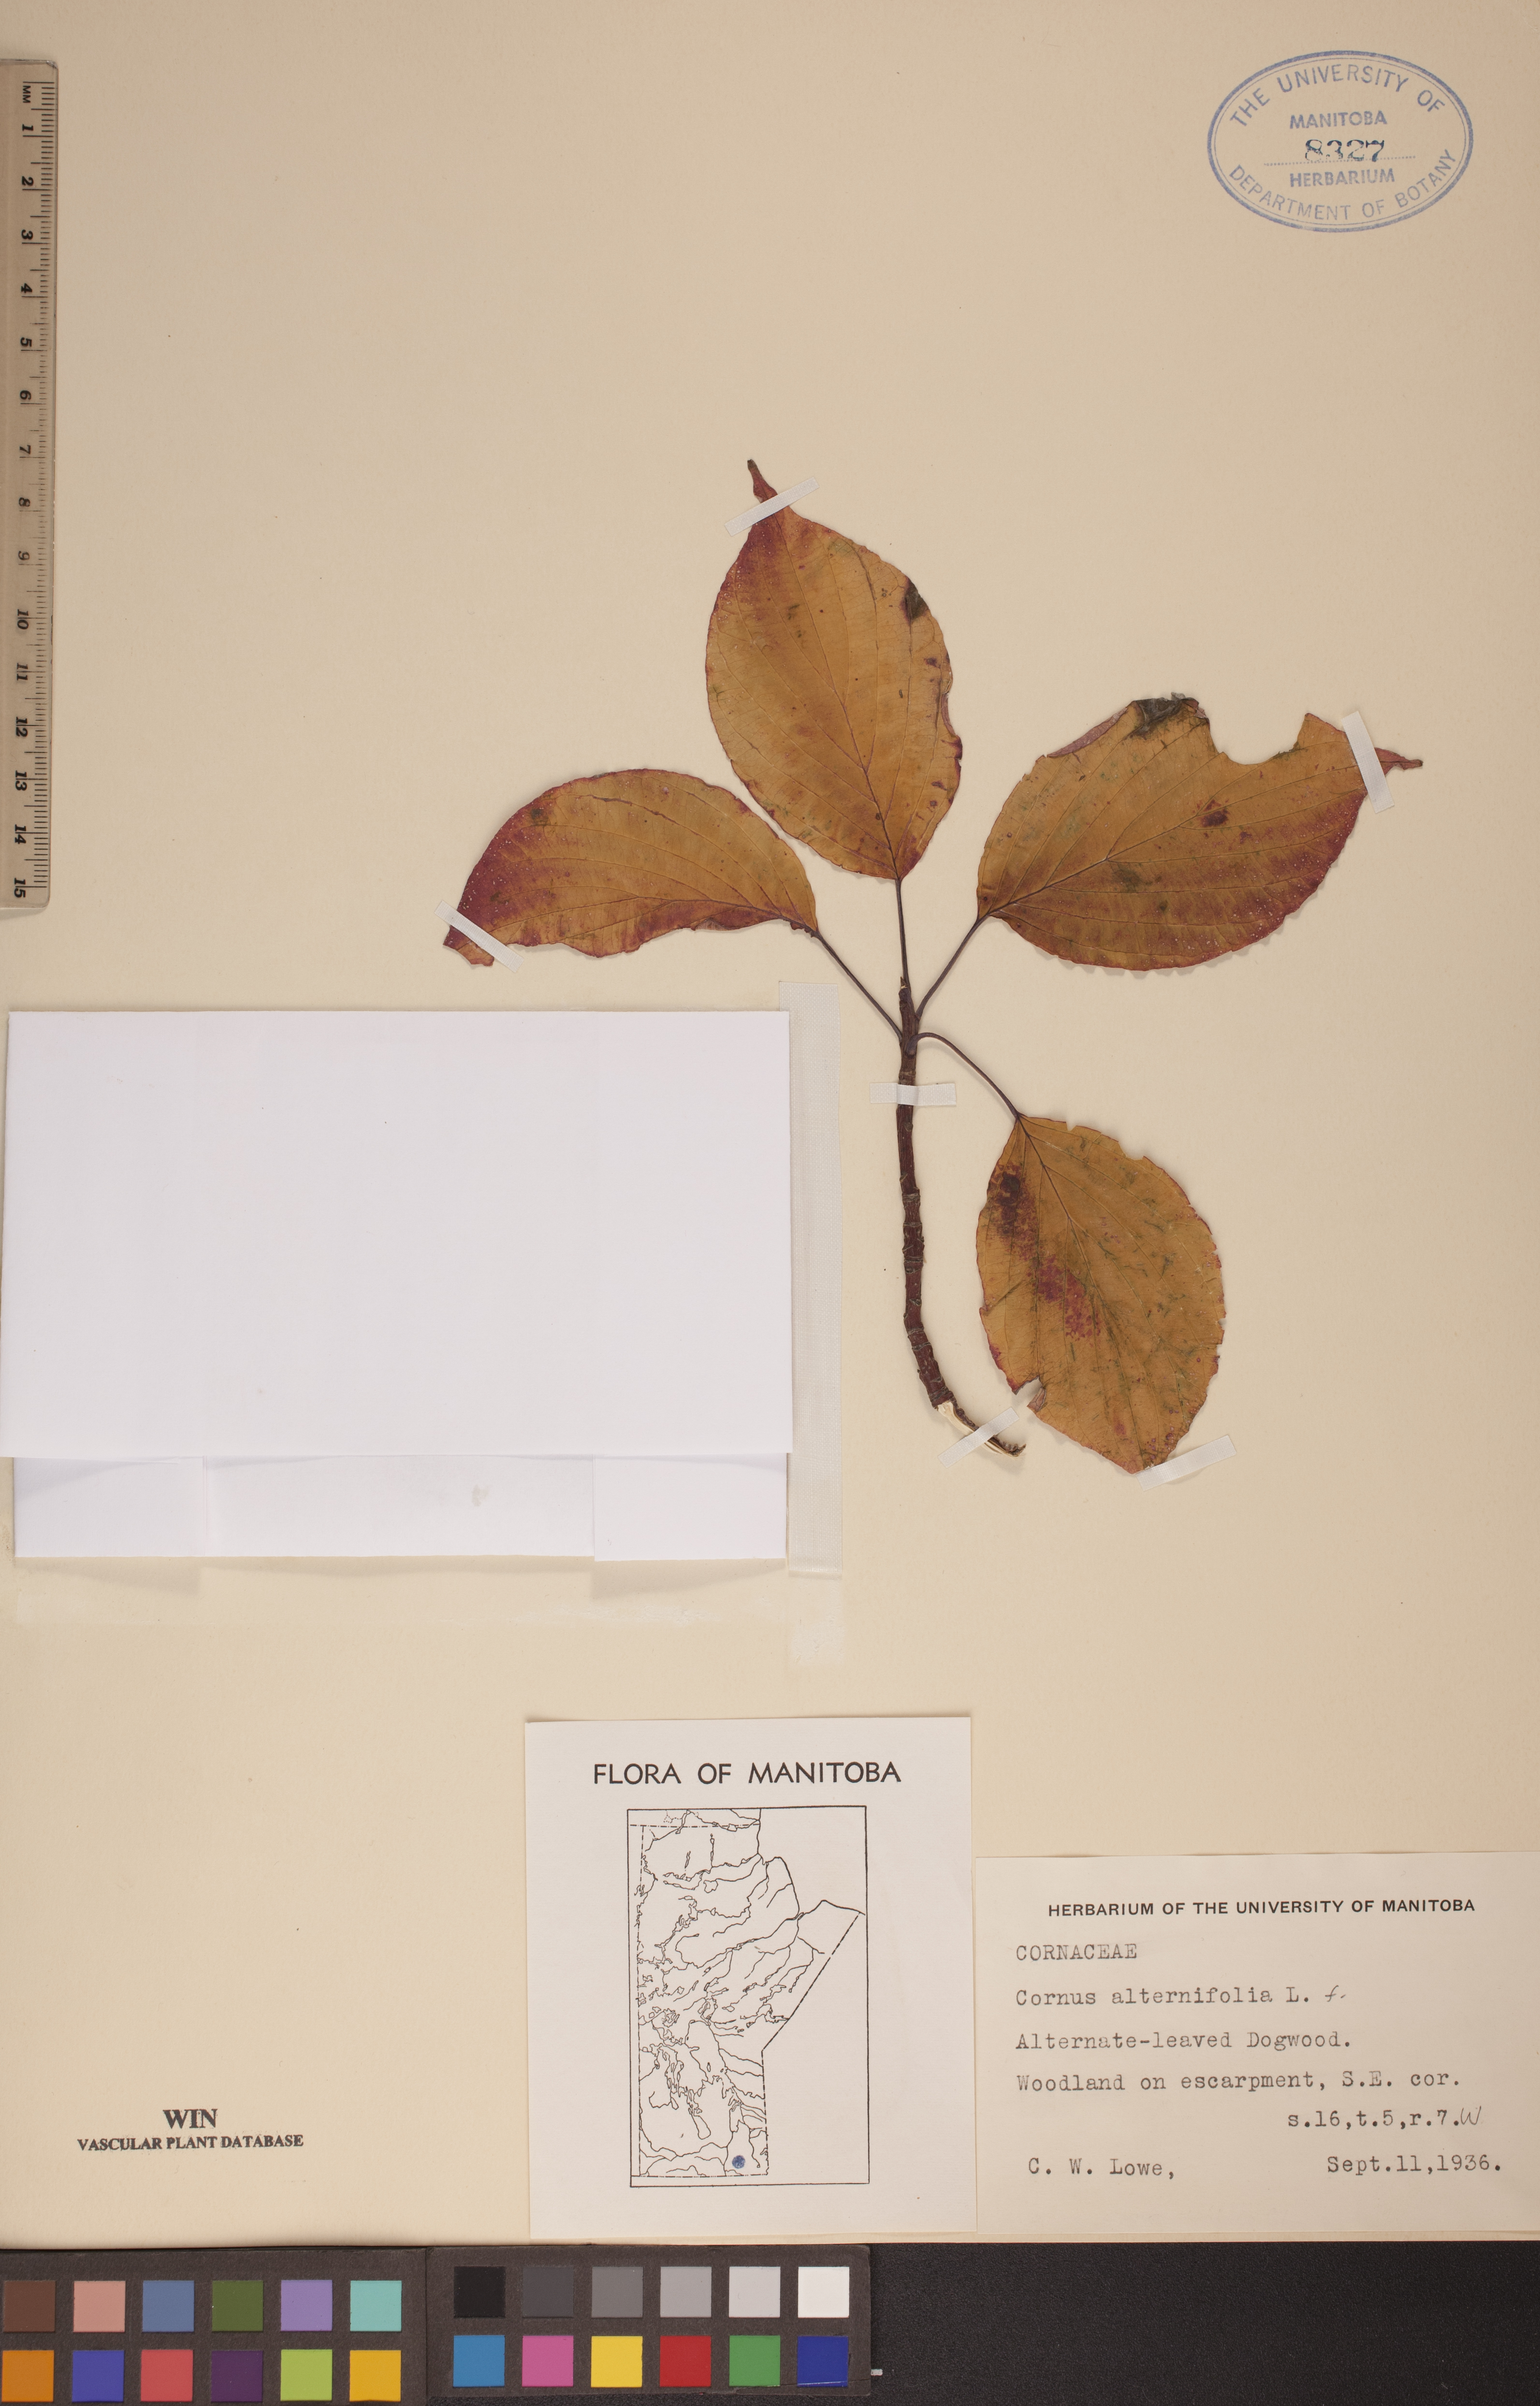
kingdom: Plantae
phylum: Tracheophyta
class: Magnoliopsida
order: Cornales
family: Cornaceae
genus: Cornus
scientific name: Cornus alternifolia
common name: Pagoda dogwood
